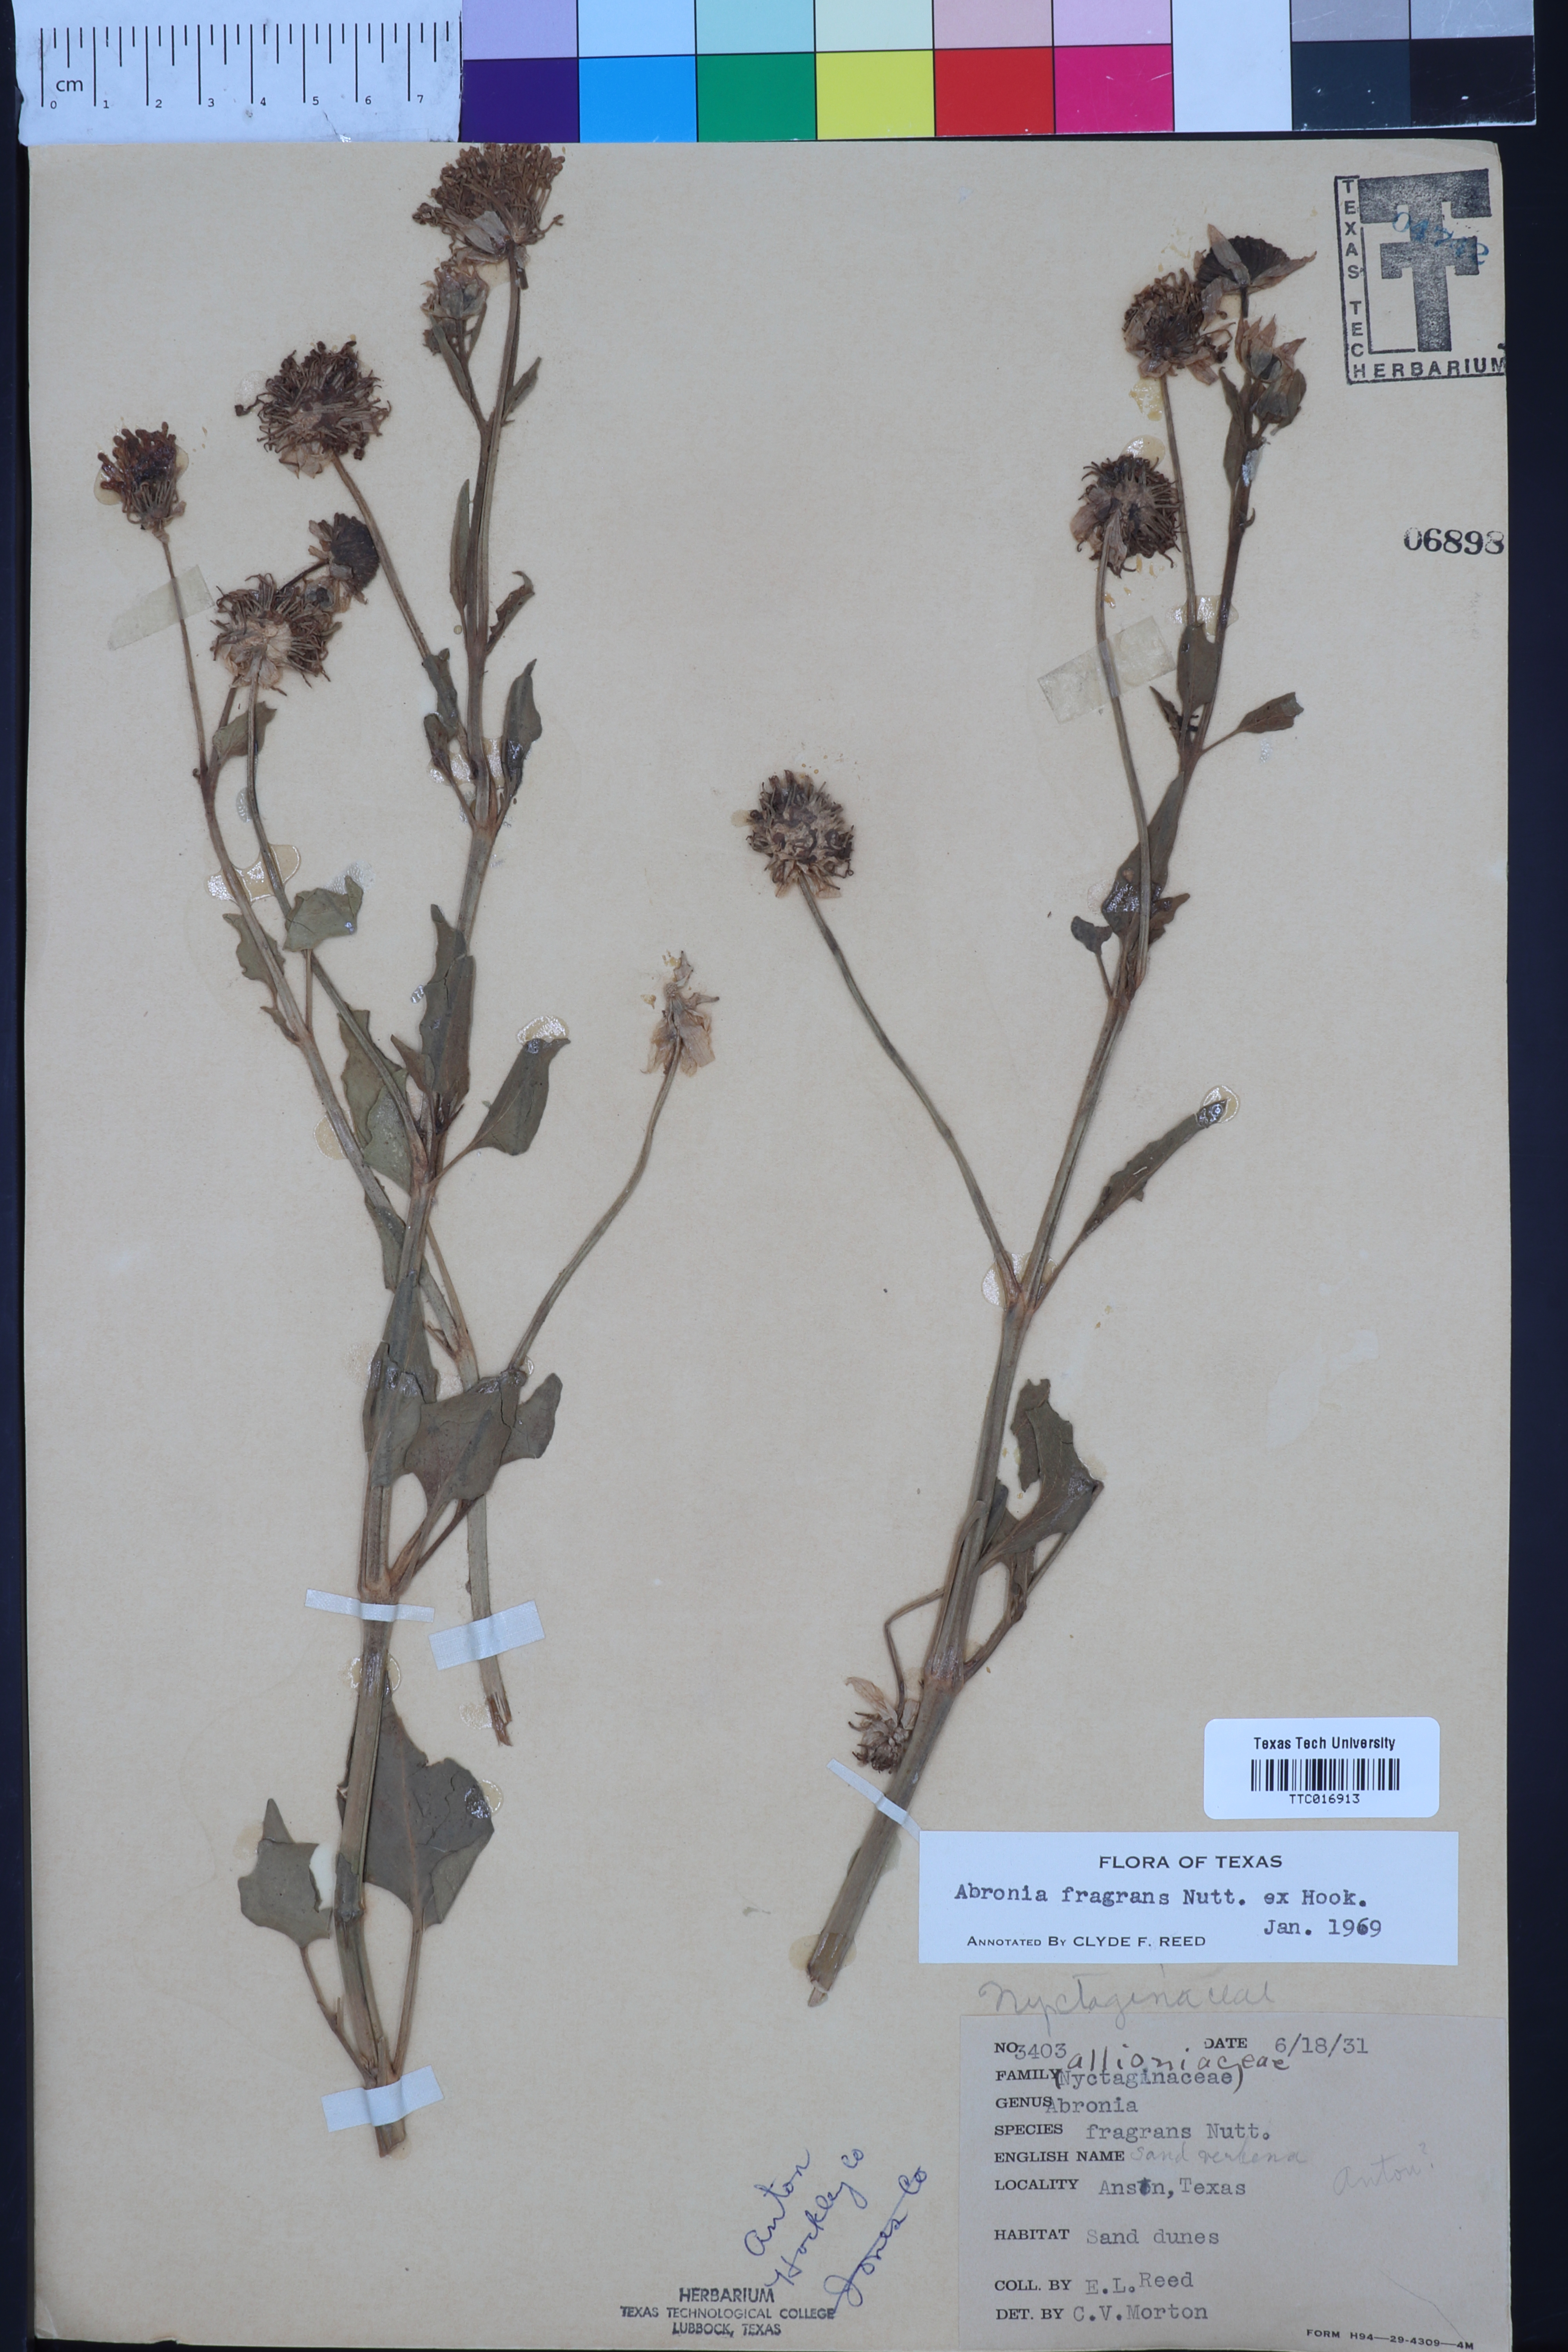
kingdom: Plantae
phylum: Tracheophyta
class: Magnoliopsida
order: Caryophyllales
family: Nyctaginaceae
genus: Abronia
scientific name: Abronia fragrans
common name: Fragrant sand-verbena
